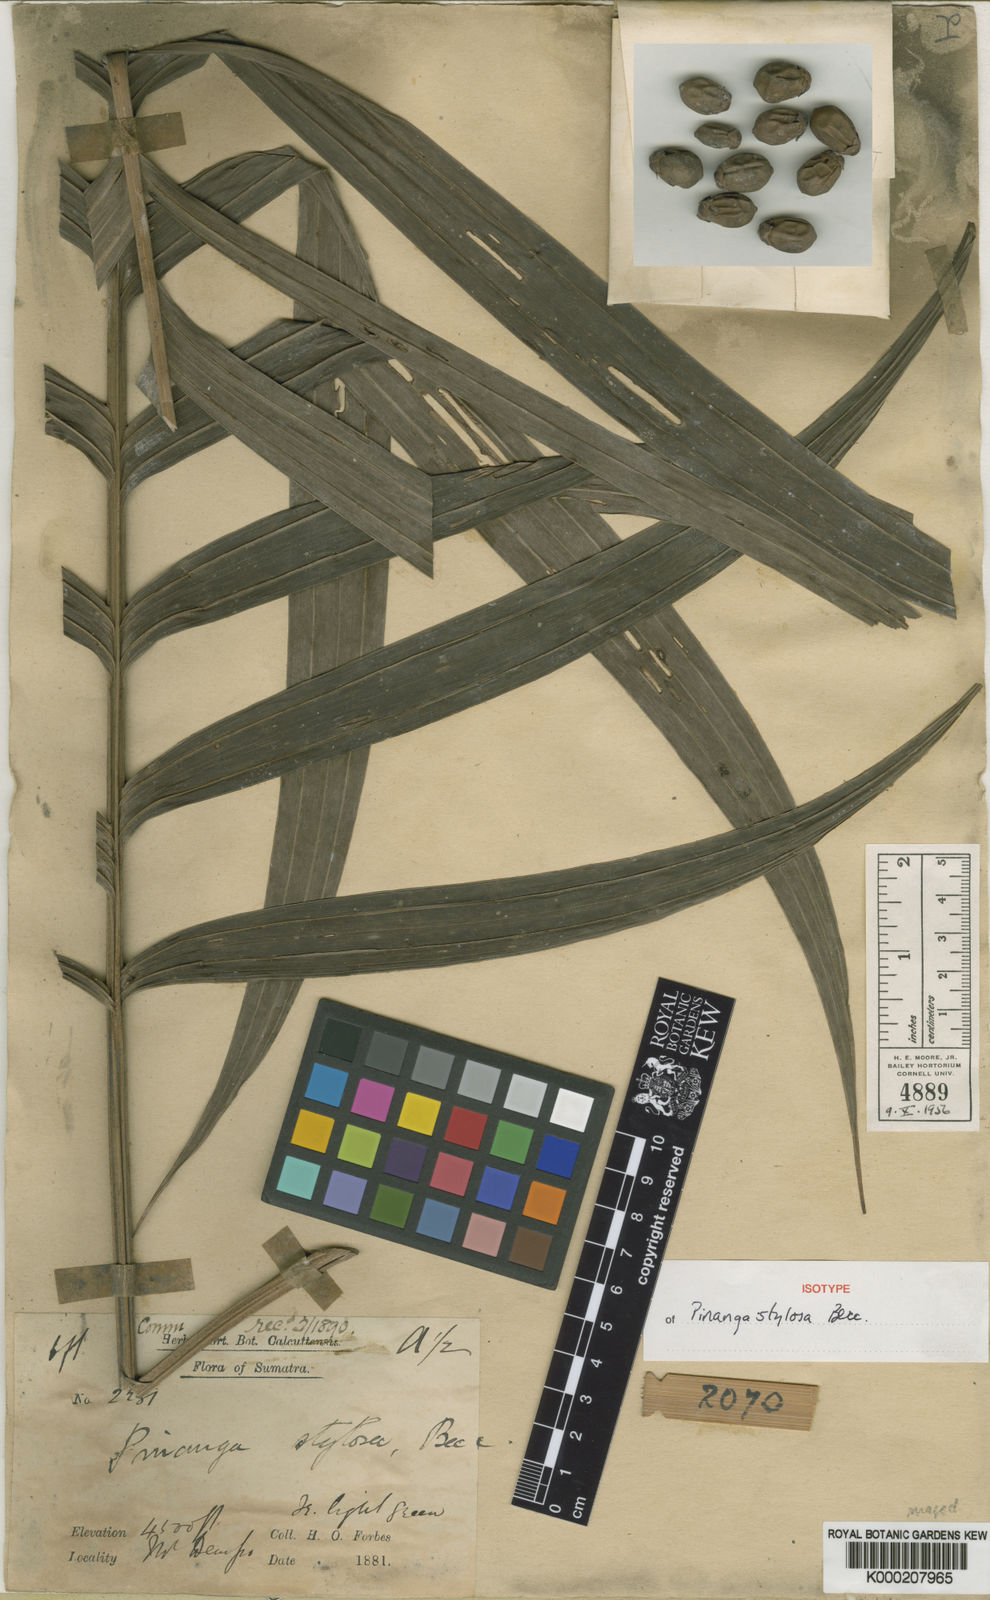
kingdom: Plantae
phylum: Tracheophyta
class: Liliopsida
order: Arecales
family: Arecaceae
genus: Pinanga
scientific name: Pinanga stylosa
